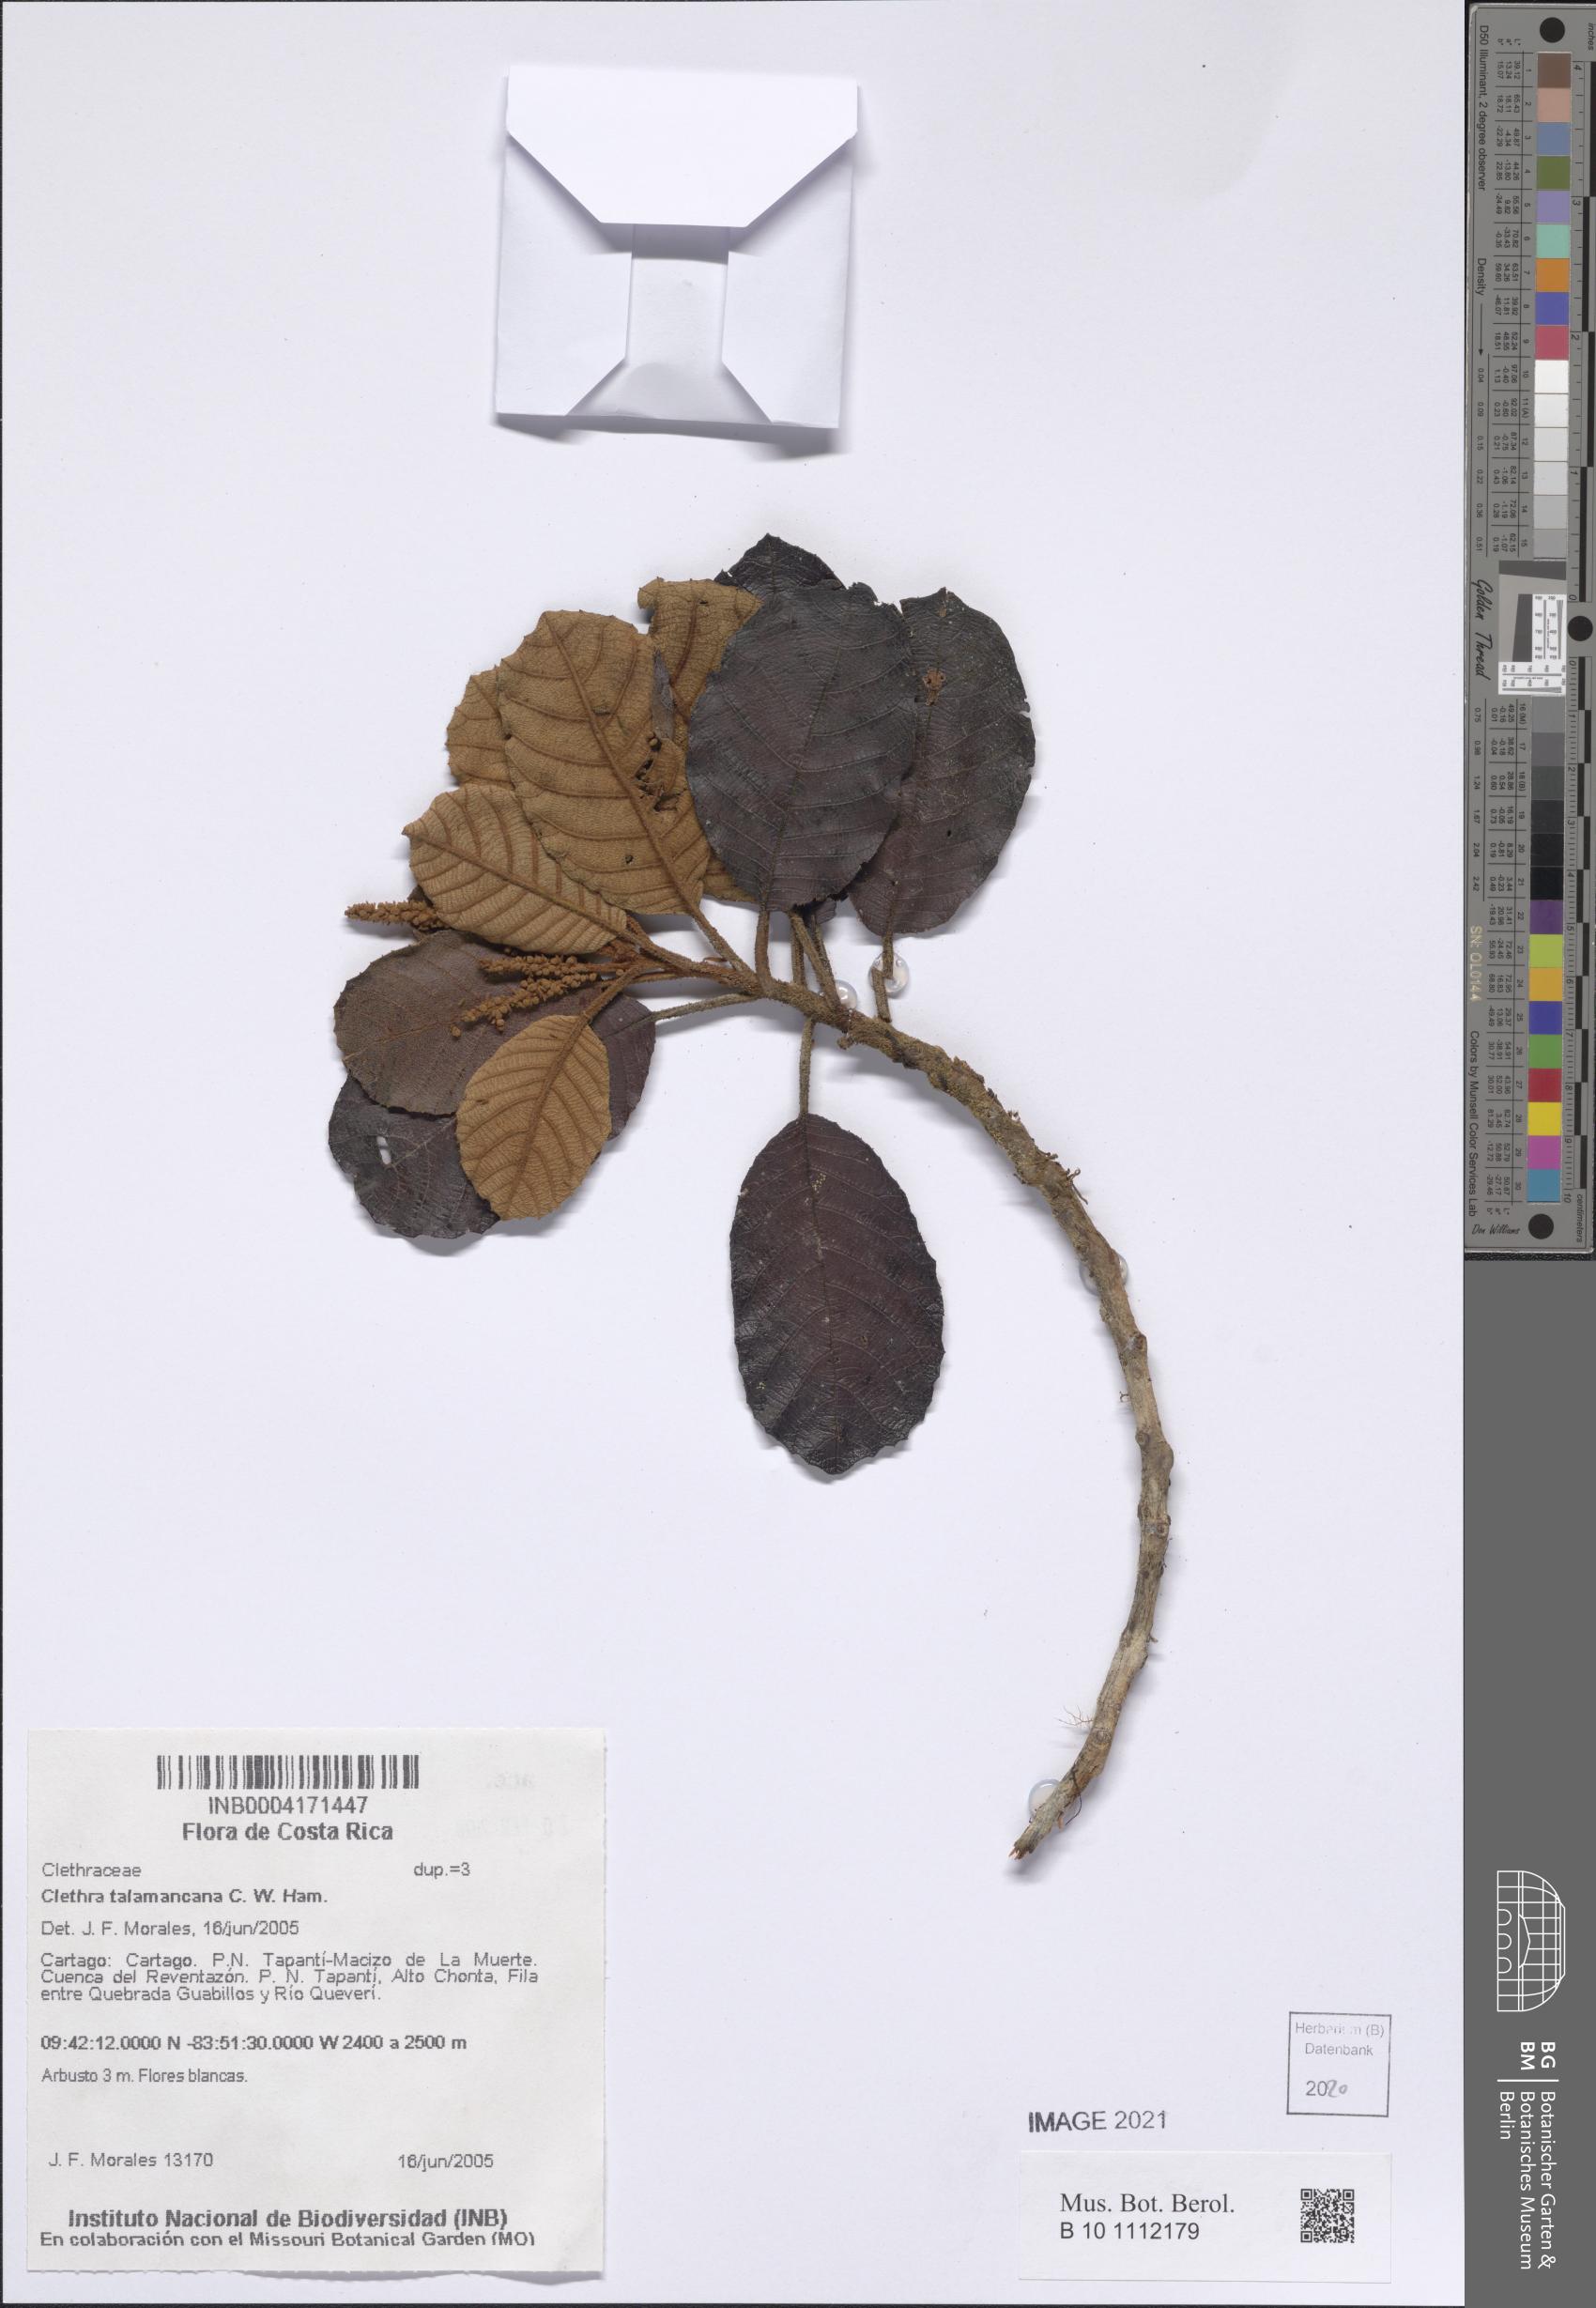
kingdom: Plantae
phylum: Tracheophyta
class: Magnoliopsida
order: Ericales
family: Clethraceae
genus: Clethra
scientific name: Clethra talamancana
